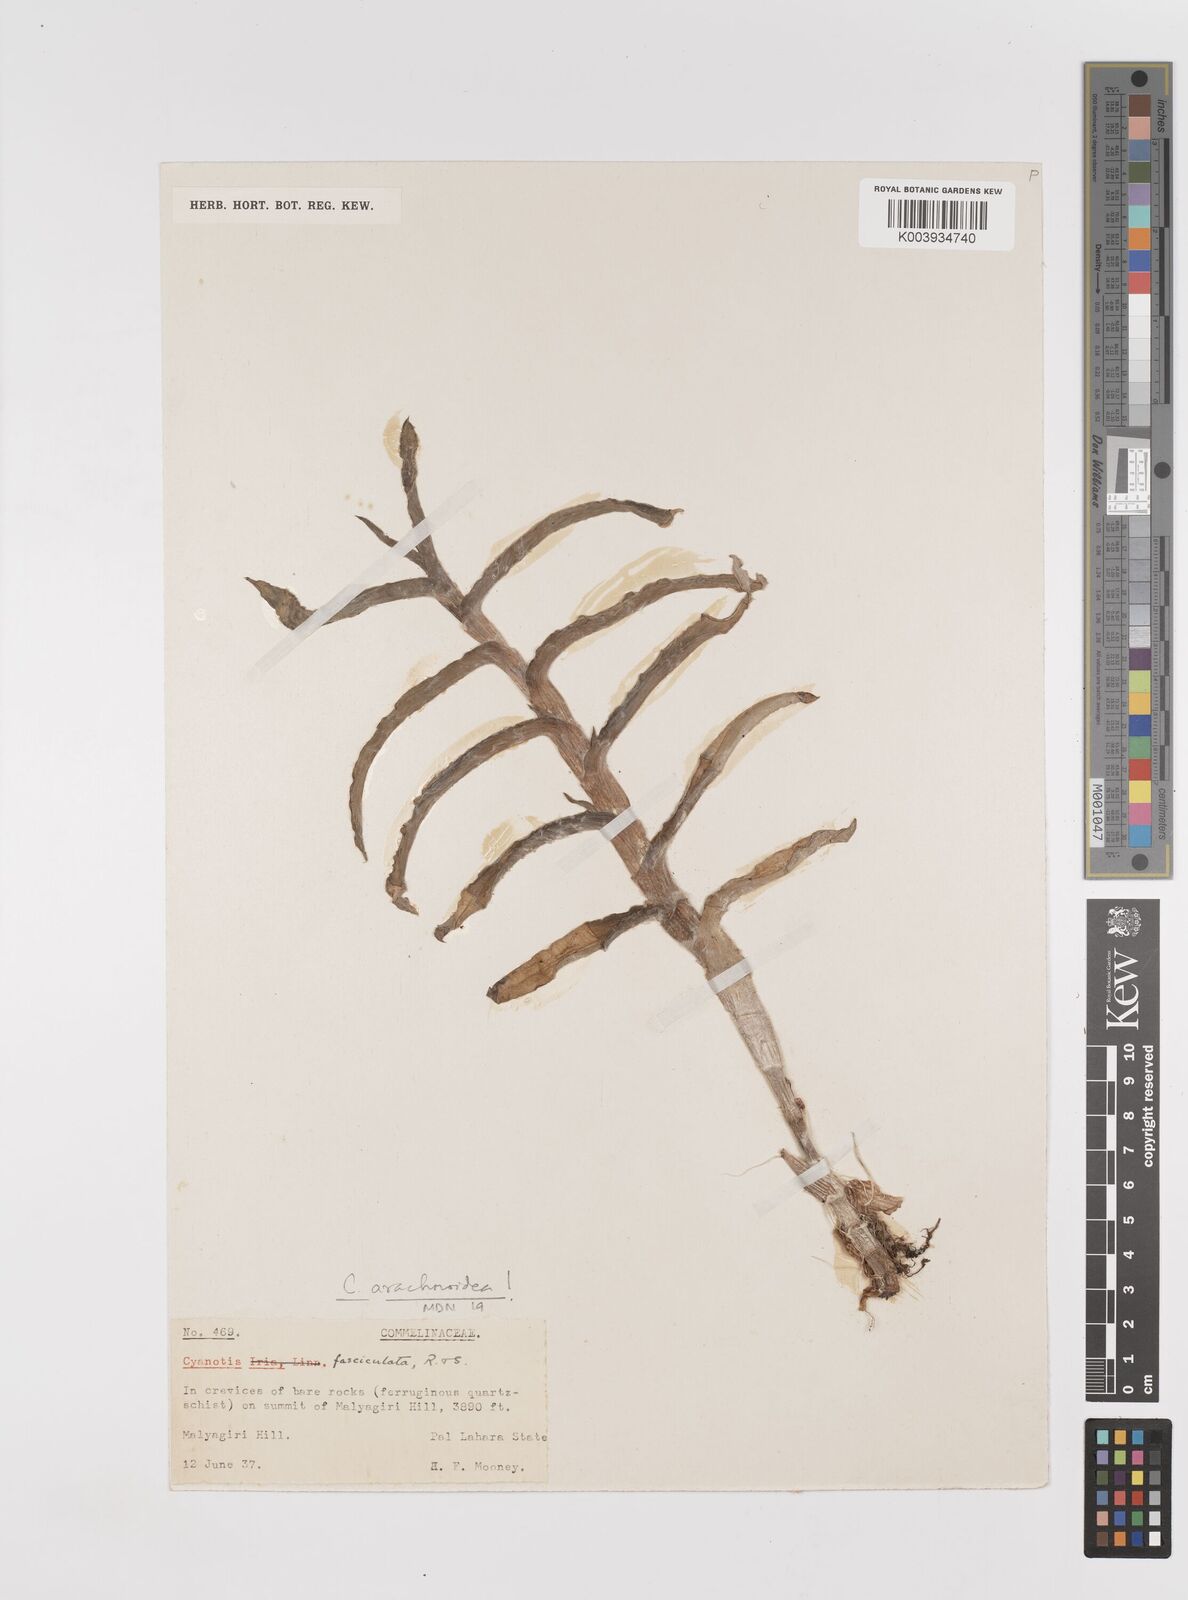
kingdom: Plantae
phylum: Tracheophyta
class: Liliopsida
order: Commelinales
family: Commelinaceae
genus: Cyanotis
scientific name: Cyanotis fasciculata
